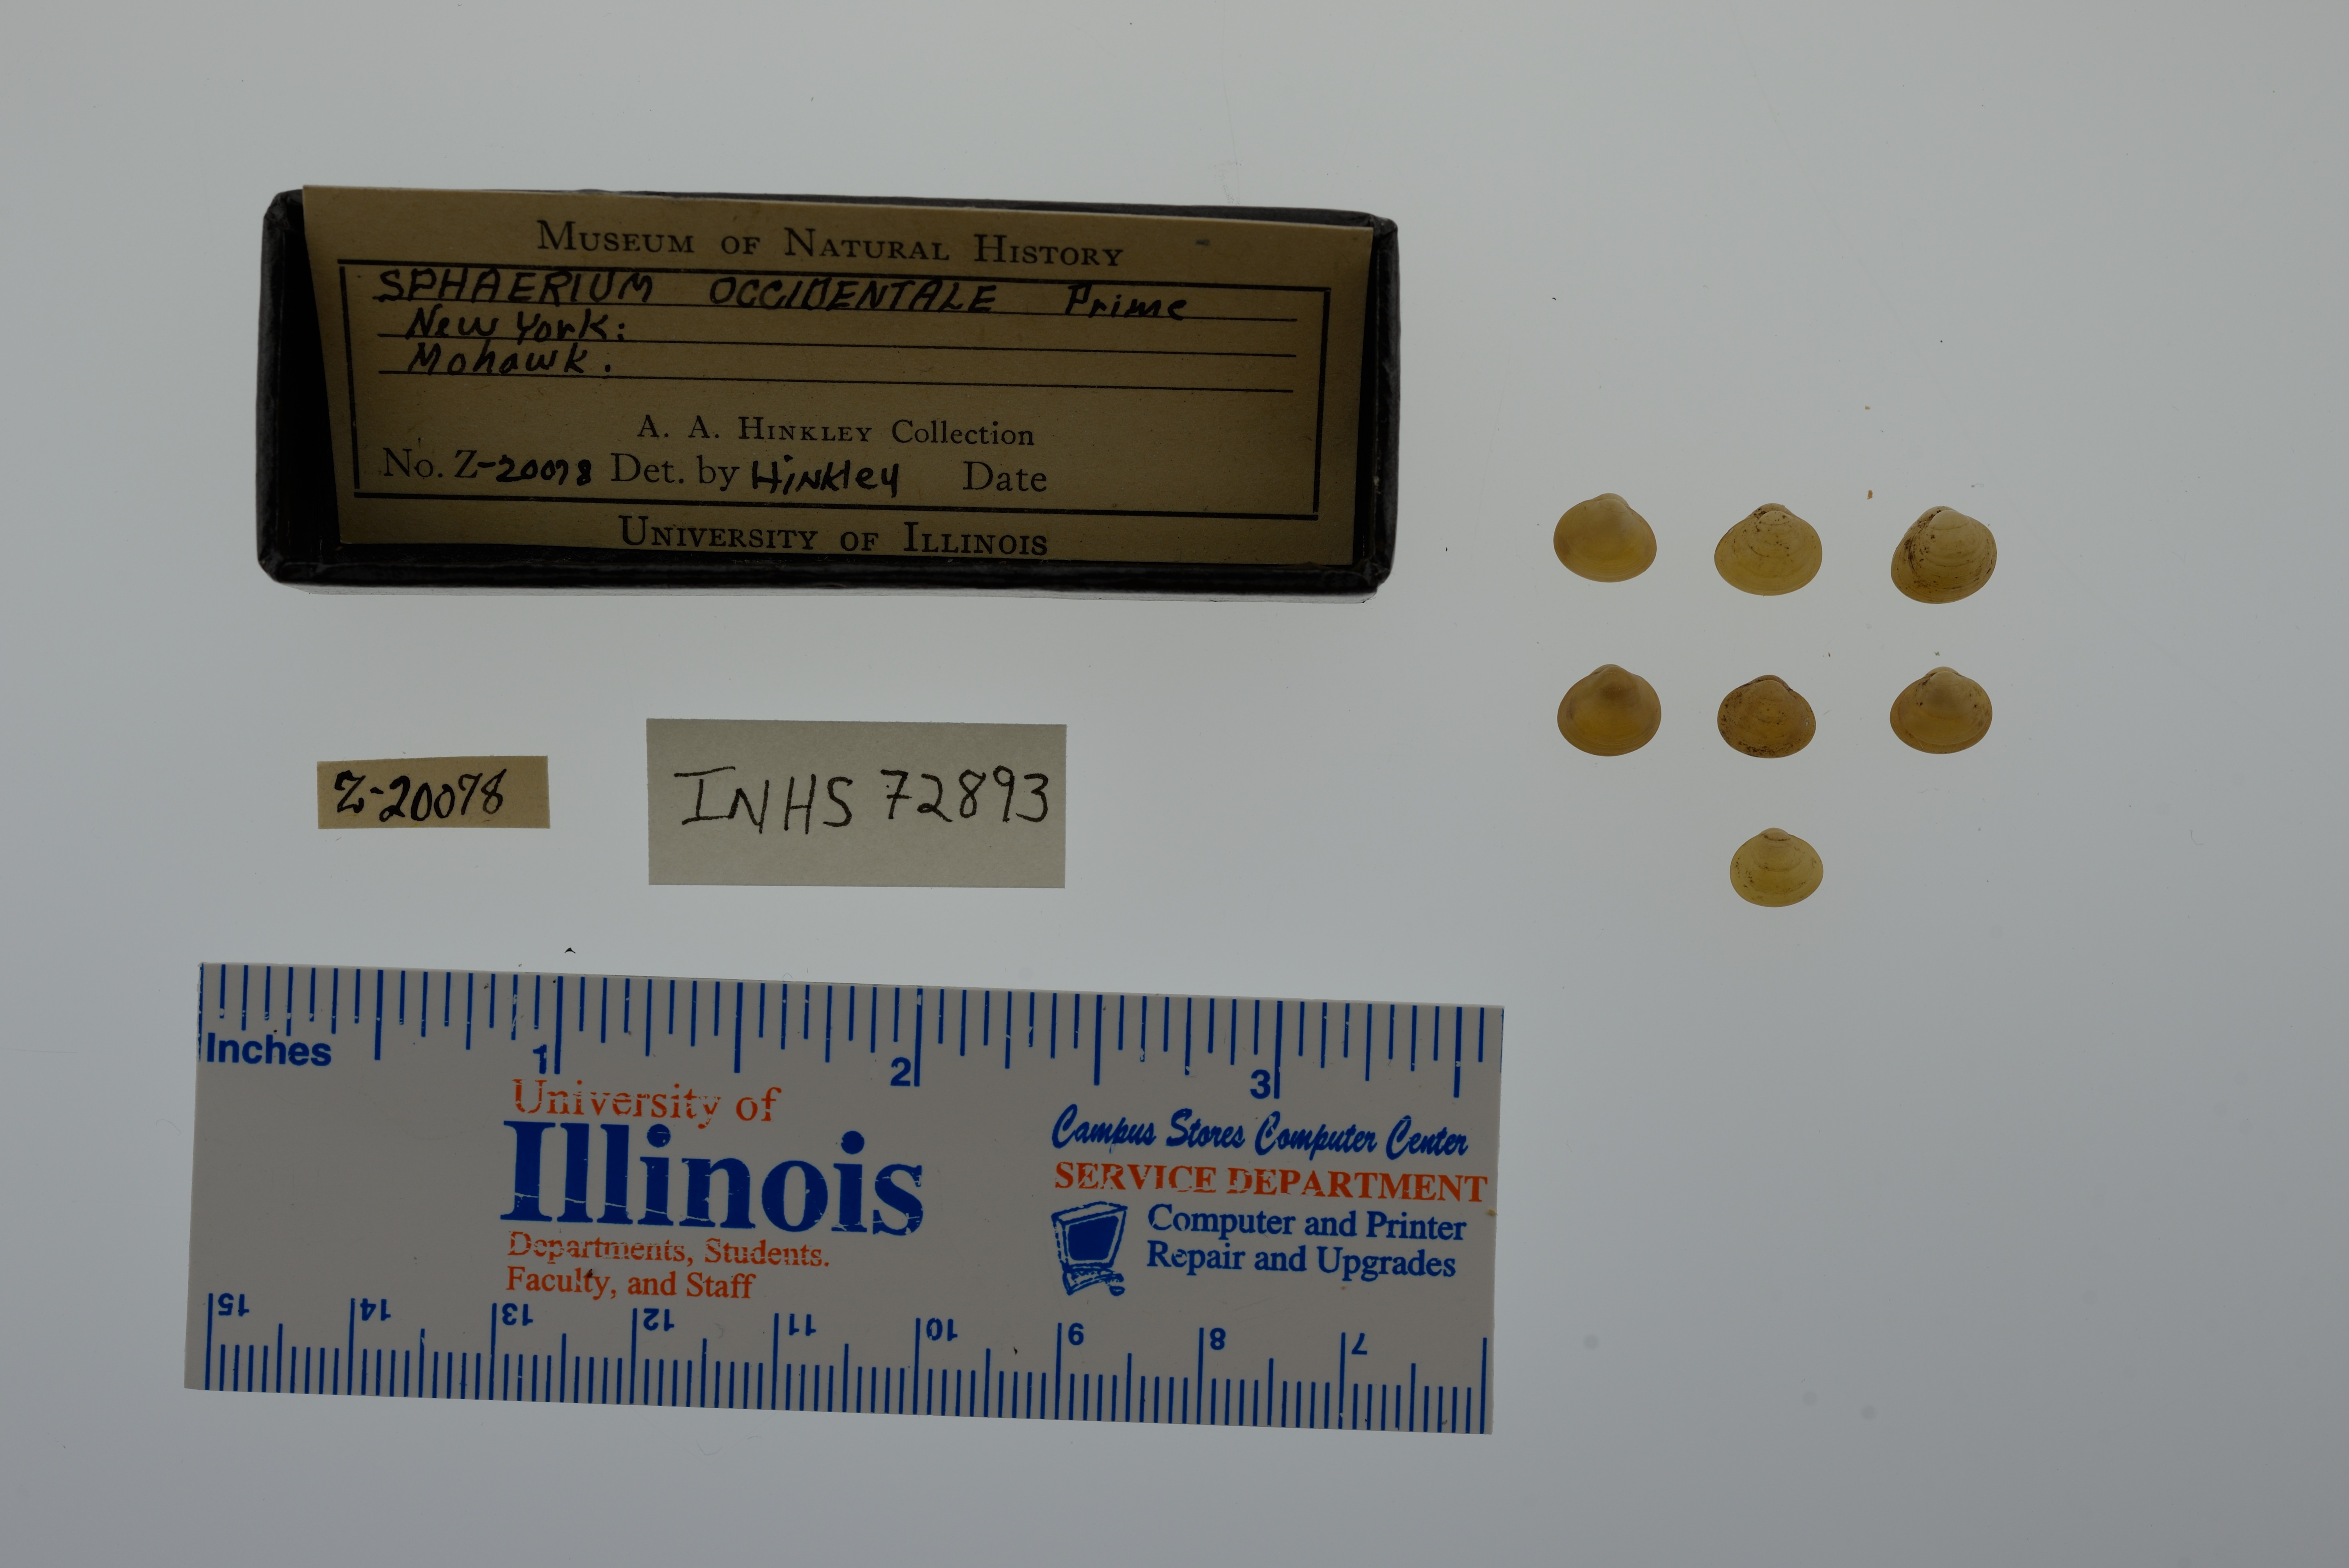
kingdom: Animalia
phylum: Mollusca
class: Bivalvia
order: Sphaeriida
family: Sphaeriidae
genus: Sphaerium
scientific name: Sphaerium occidentale
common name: Herrington fingernailclam
